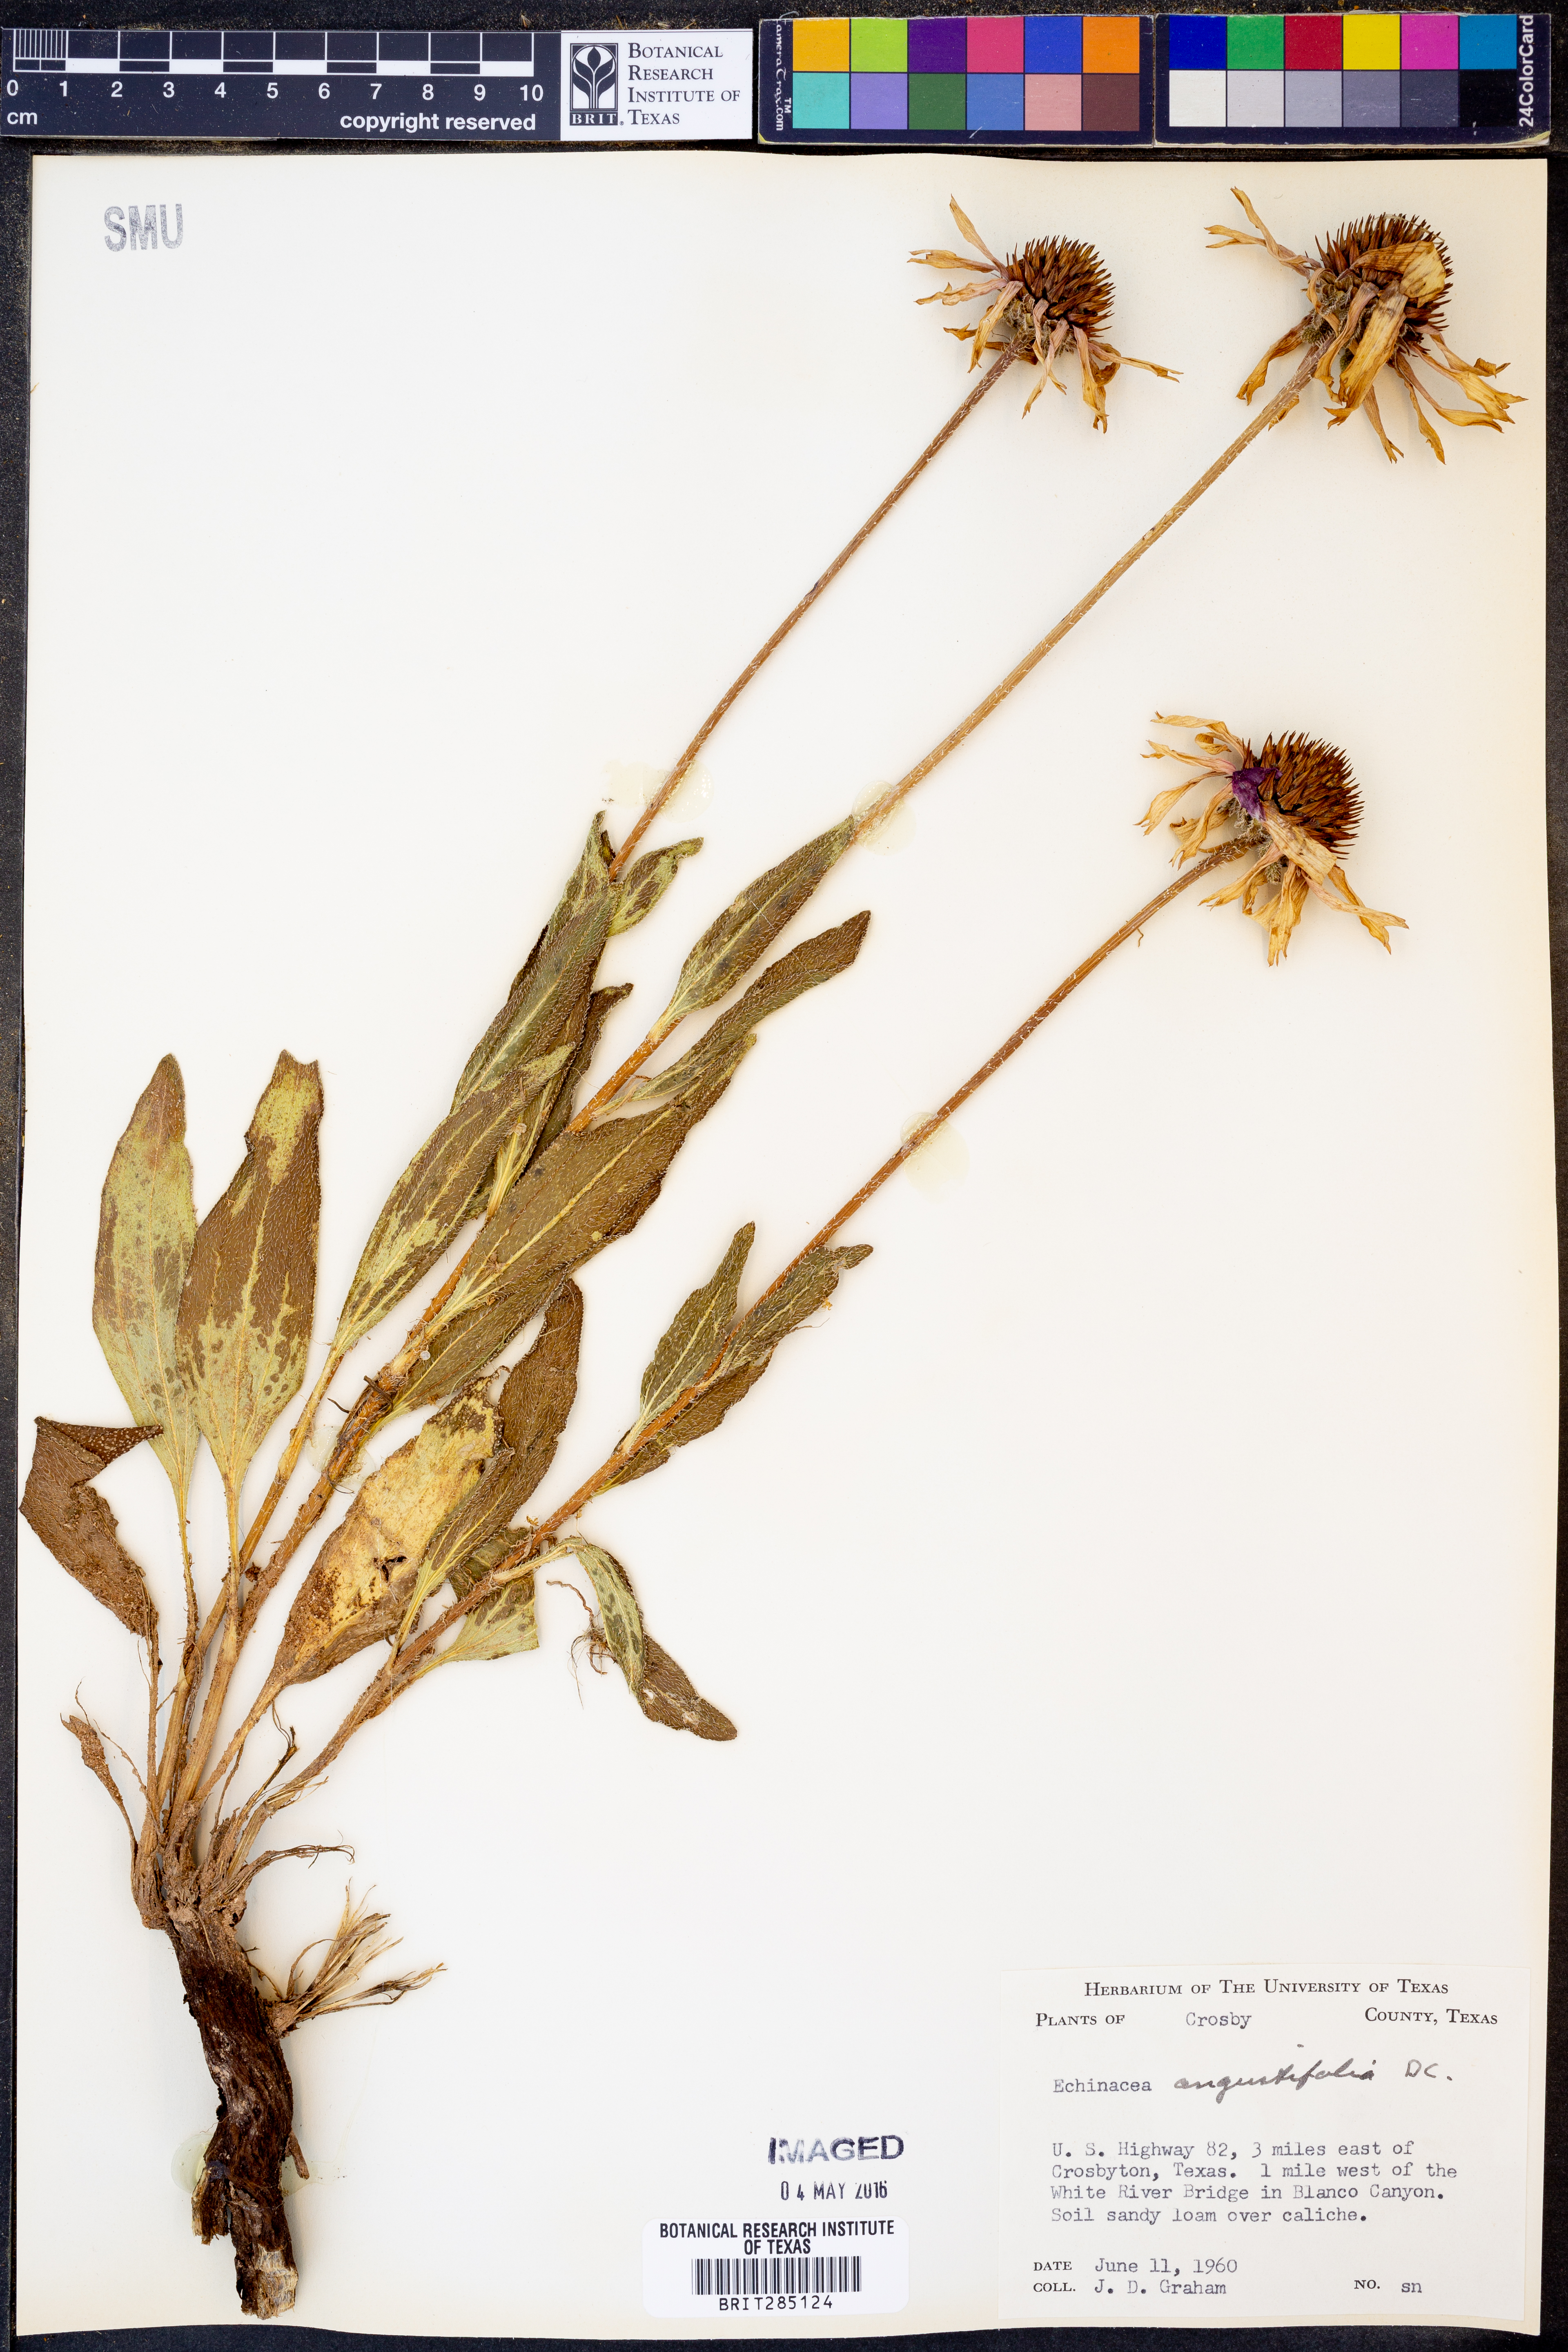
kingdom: Plantae
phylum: Tracheophyta
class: Magnoliopsida
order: Asterales
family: Asteraceae
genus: Echinacea
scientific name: Echinacea angustifolia
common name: Black-sampson echinacea
